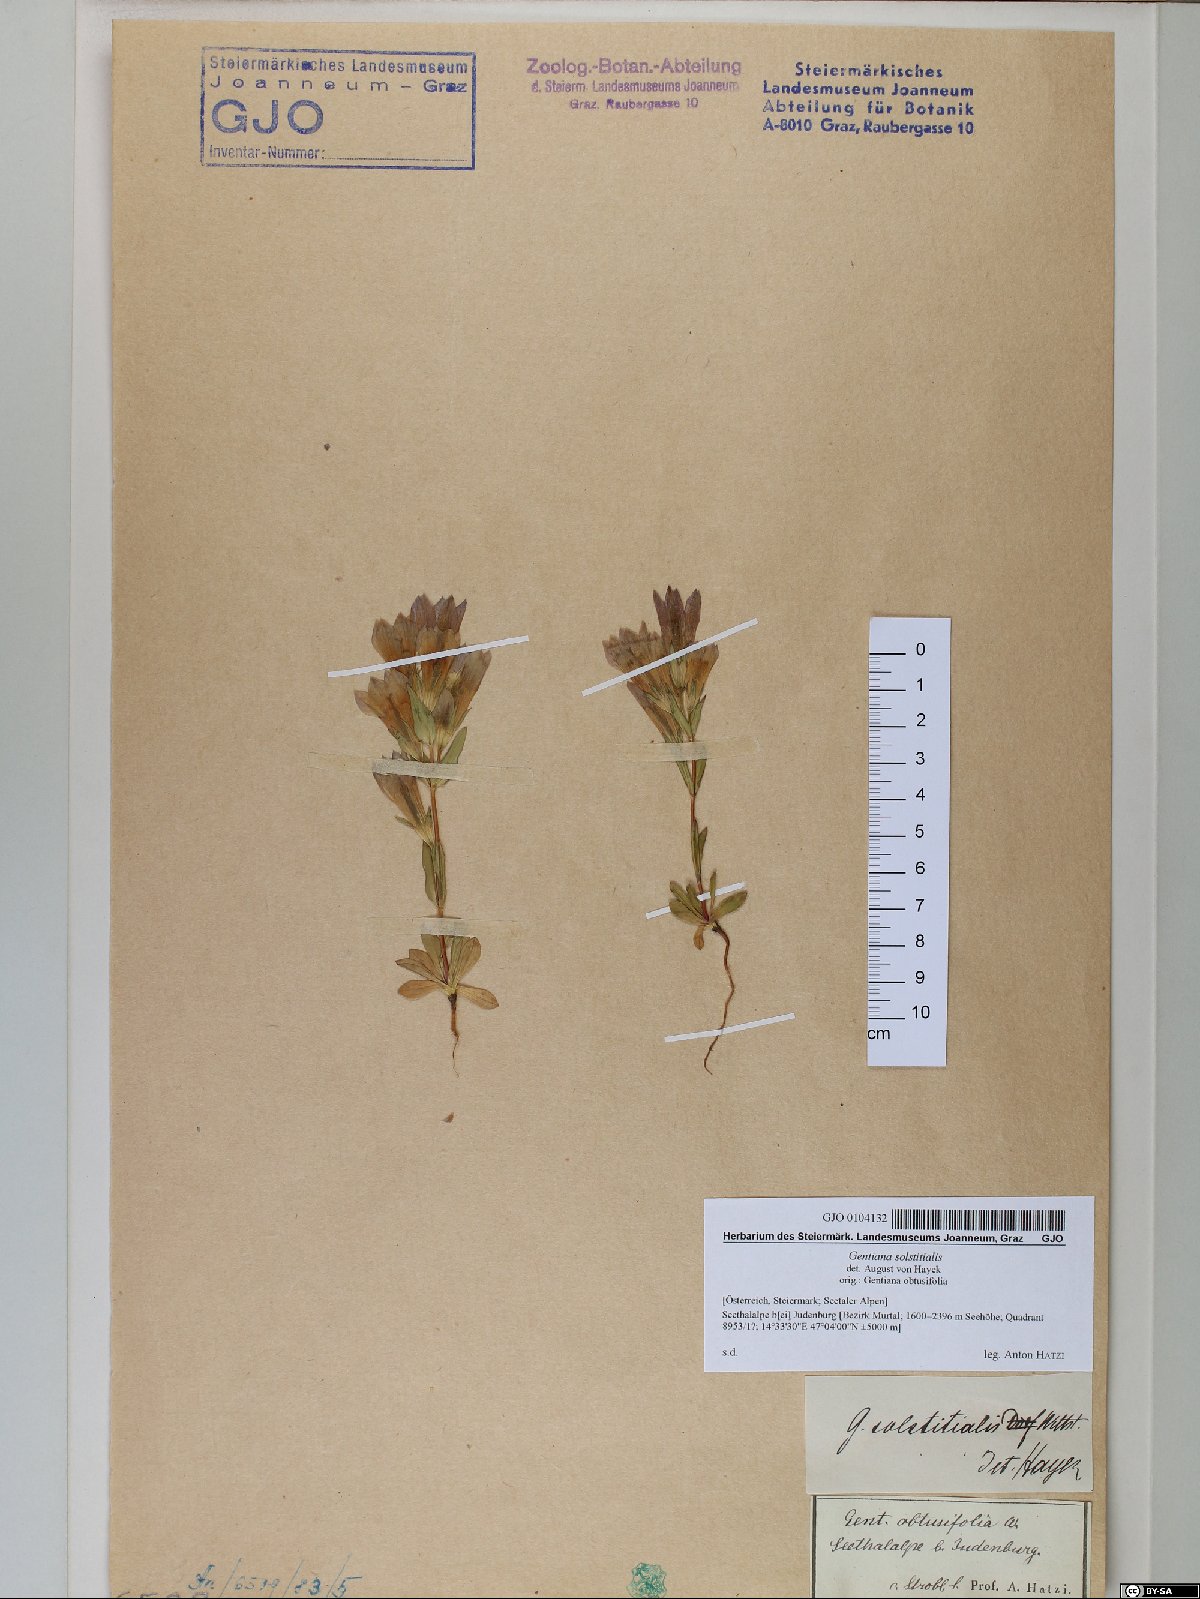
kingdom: Plantae
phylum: Tracheophyta
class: Magnoliopsida
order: Gentianales
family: Gentianaceae
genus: Gentianella
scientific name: Gentianella germanica
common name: Chiltern-gentian
